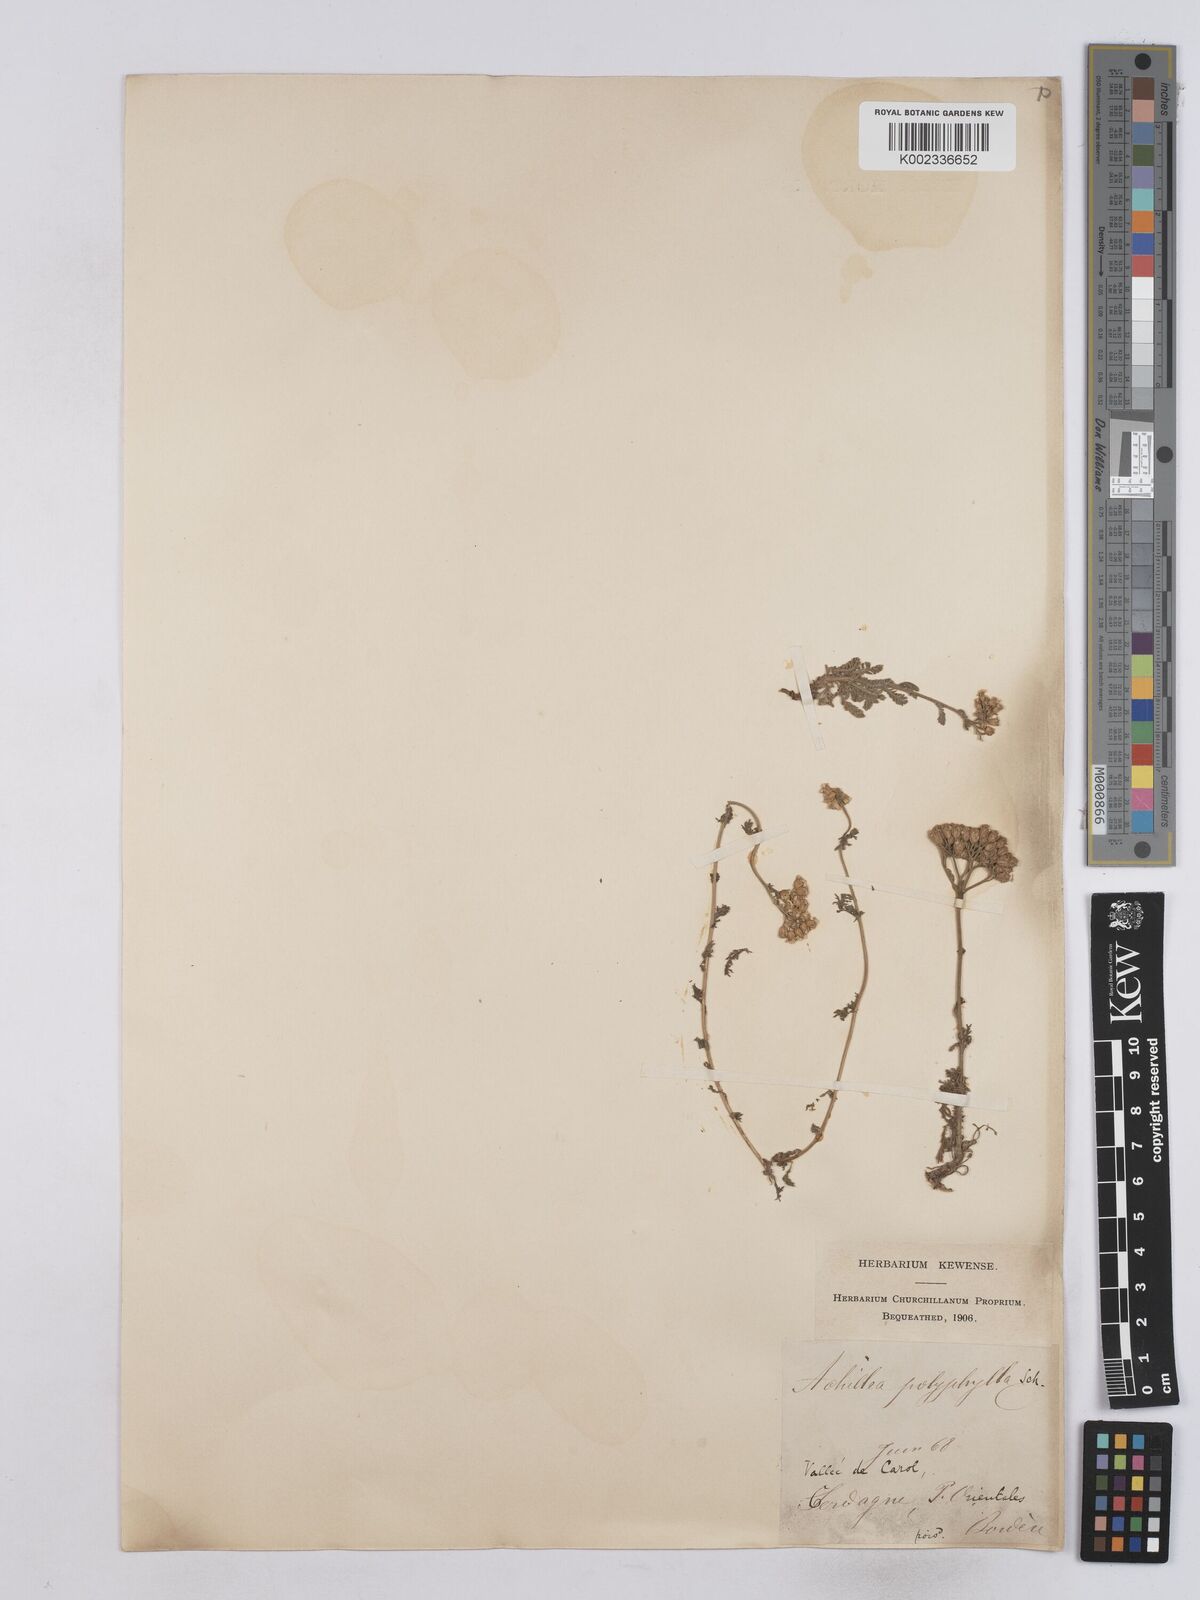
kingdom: Plantae
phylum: Tracheophyta
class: Magnoliopsida
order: Asterales
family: Asteraceae
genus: Achillea
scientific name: Achillea setacea
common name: Bristly yarrow
